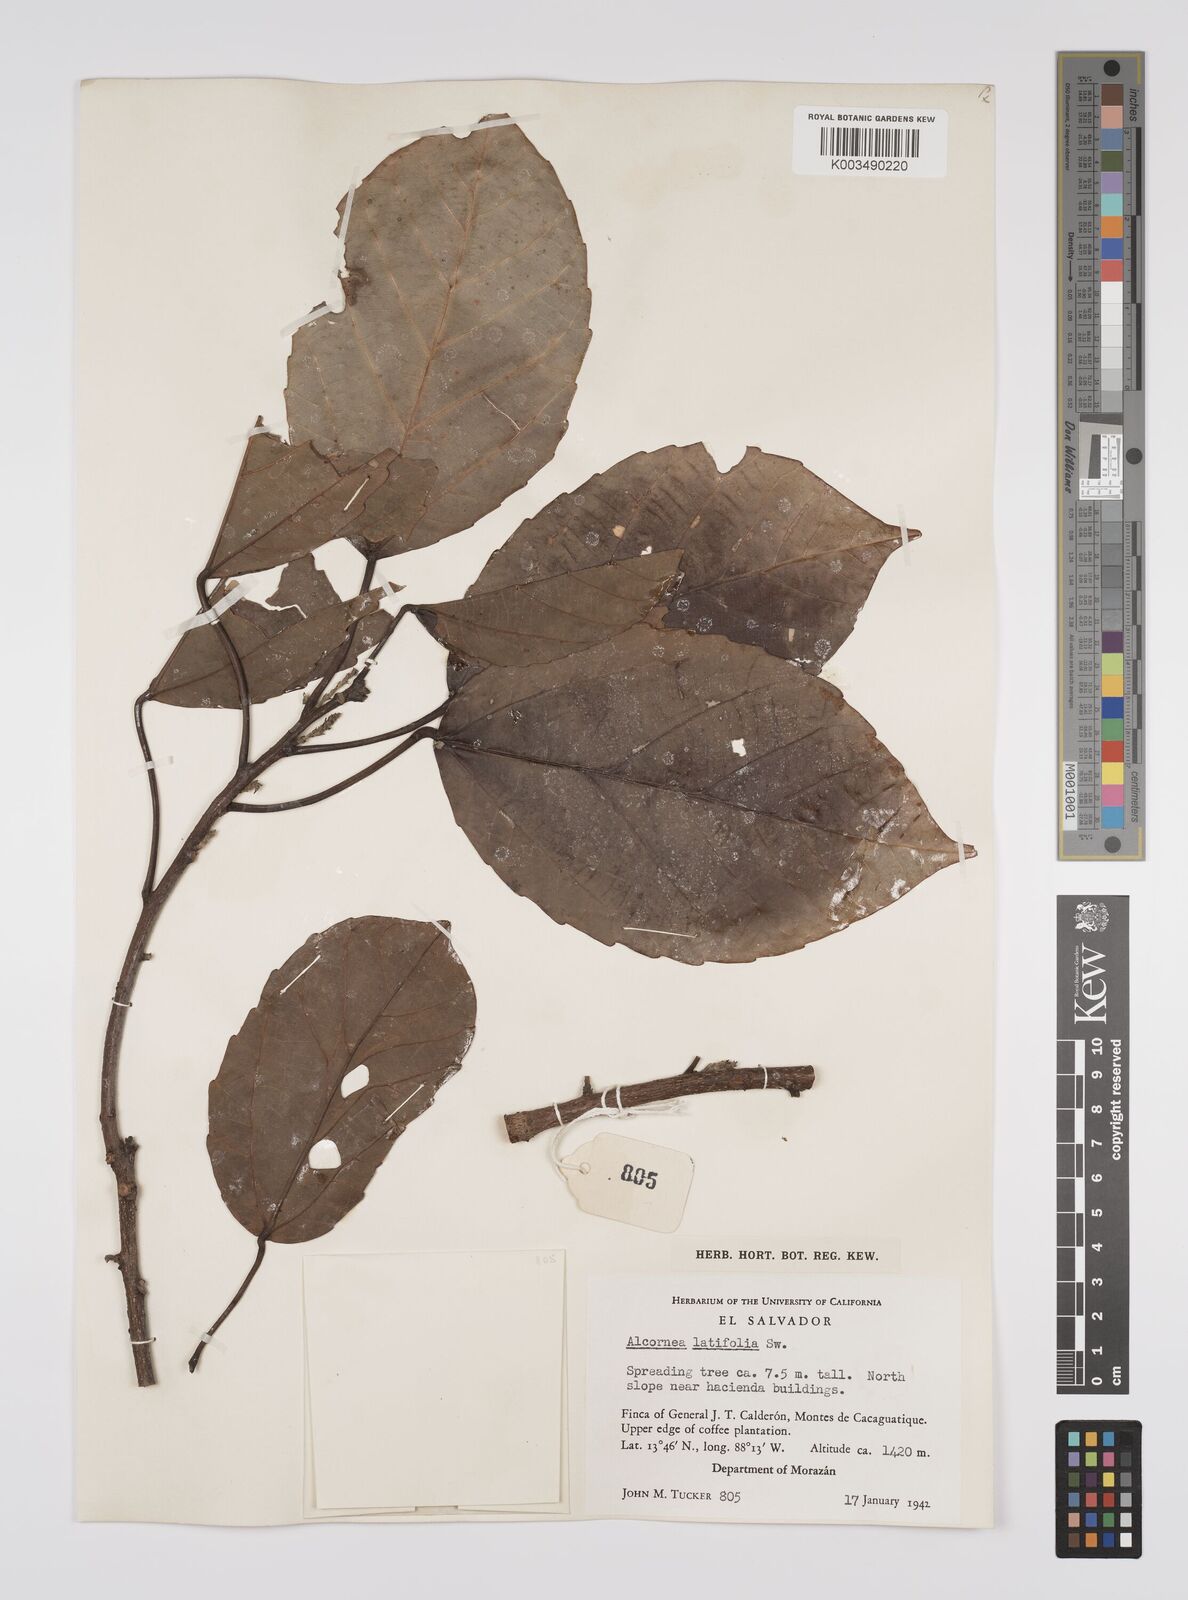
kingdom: Plantae
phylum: Tracheophyta
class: Magnoliopsida
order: Malpighiales
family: Euphorbiaceae
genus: Alchornea
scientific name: Alchornea latifolia
